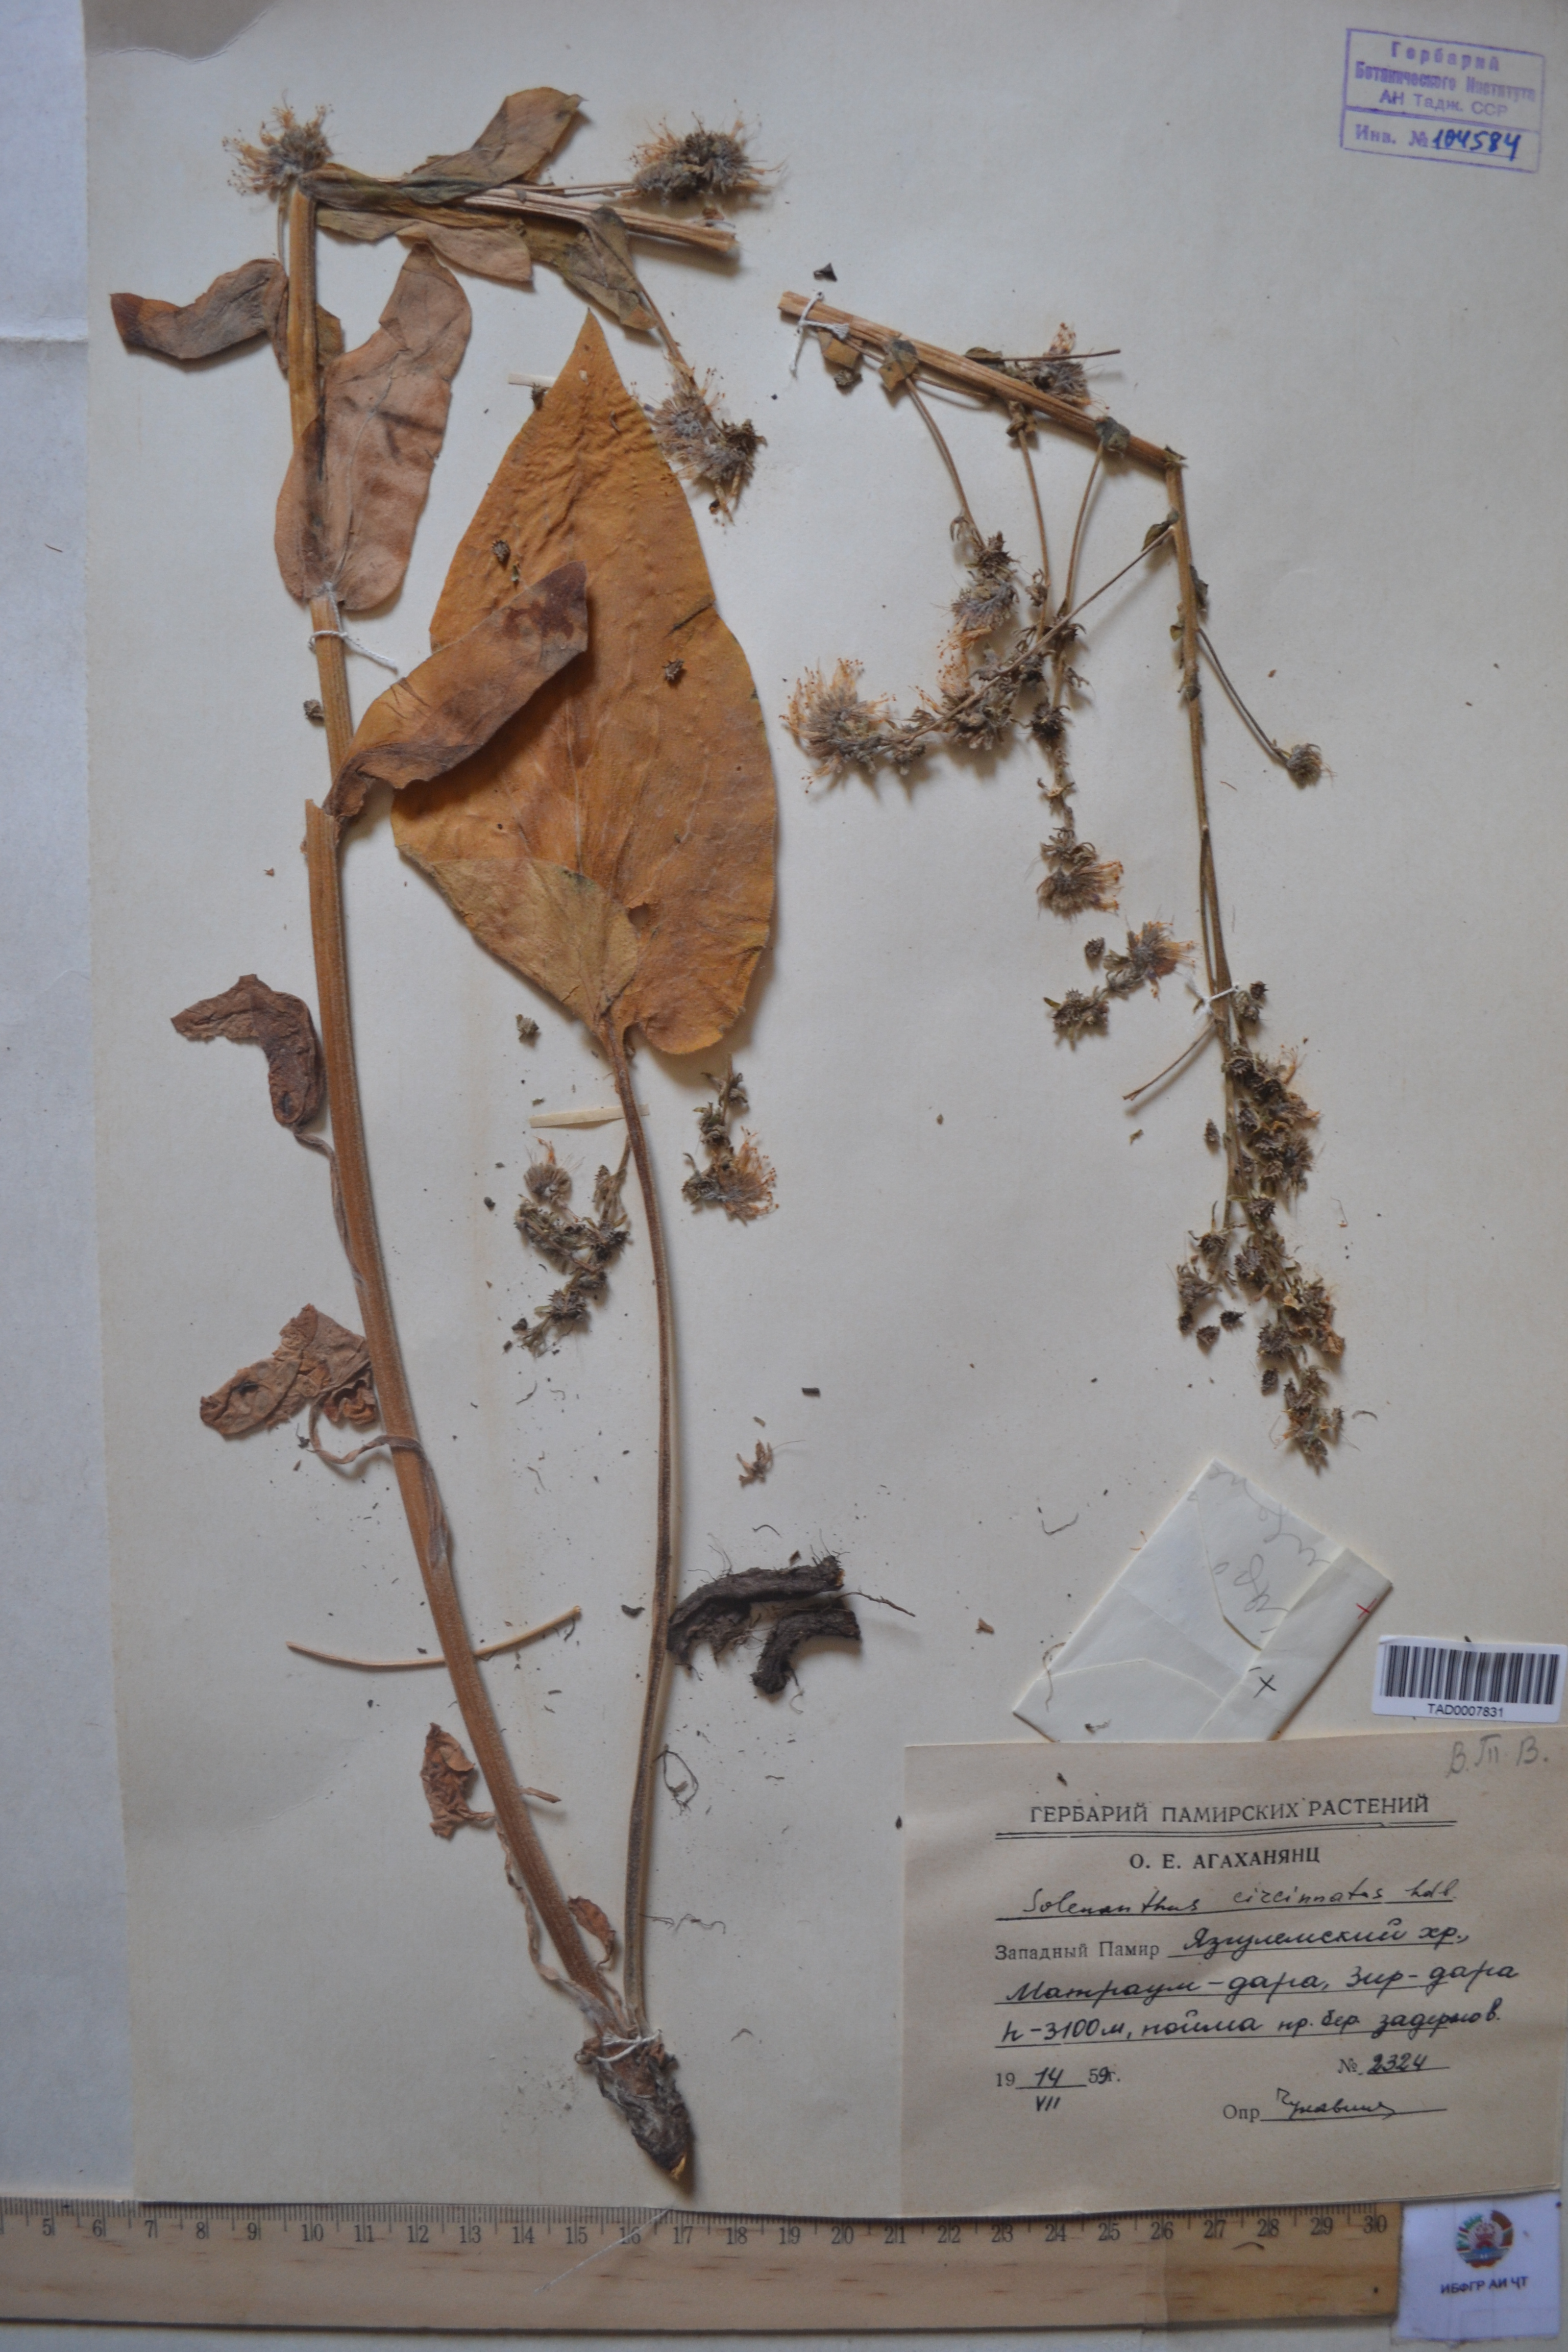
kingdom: Plantae
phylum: Tracheophyta
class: Magnoliopsida
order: Boraginales
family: Boraginaceae
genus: Solenanthus
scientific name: Solenanthus circinnatus
